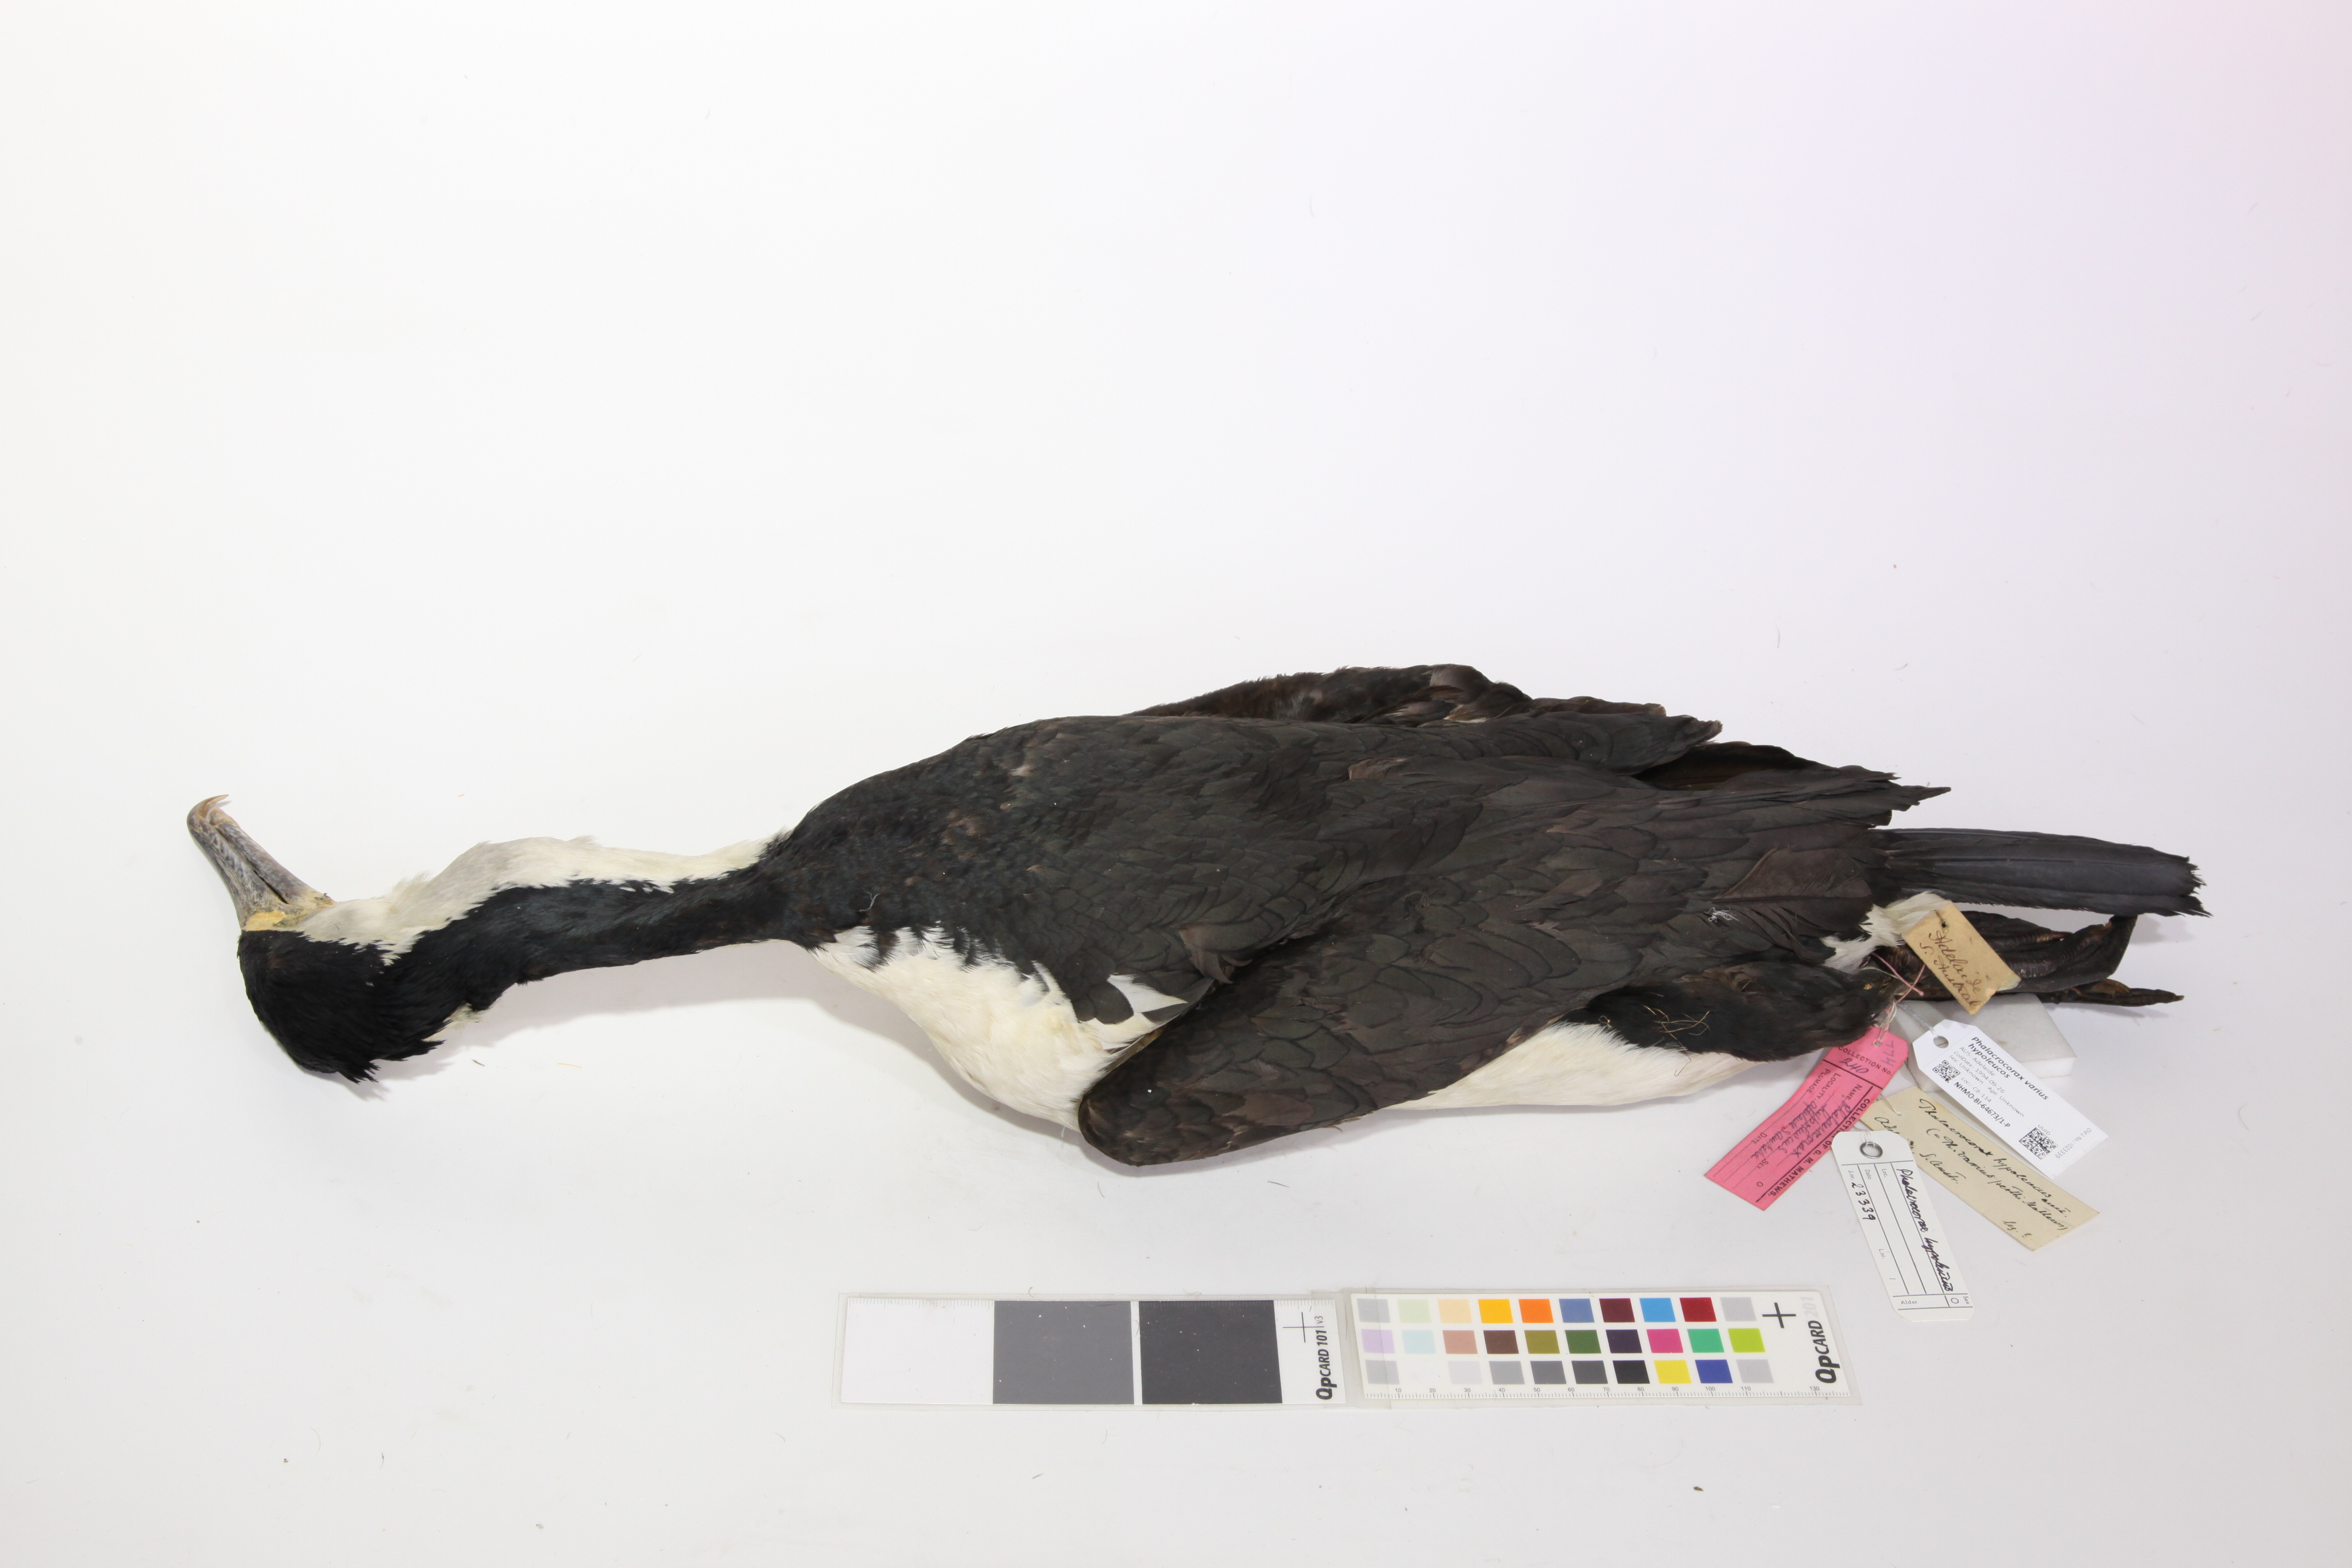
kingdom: Animalia
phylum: Chordata
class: Aves
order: Suliformes
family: Phalacrocoracidae
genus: Phalacrocorax
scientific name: Phalacrocorax varius
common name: Pied cormorant
